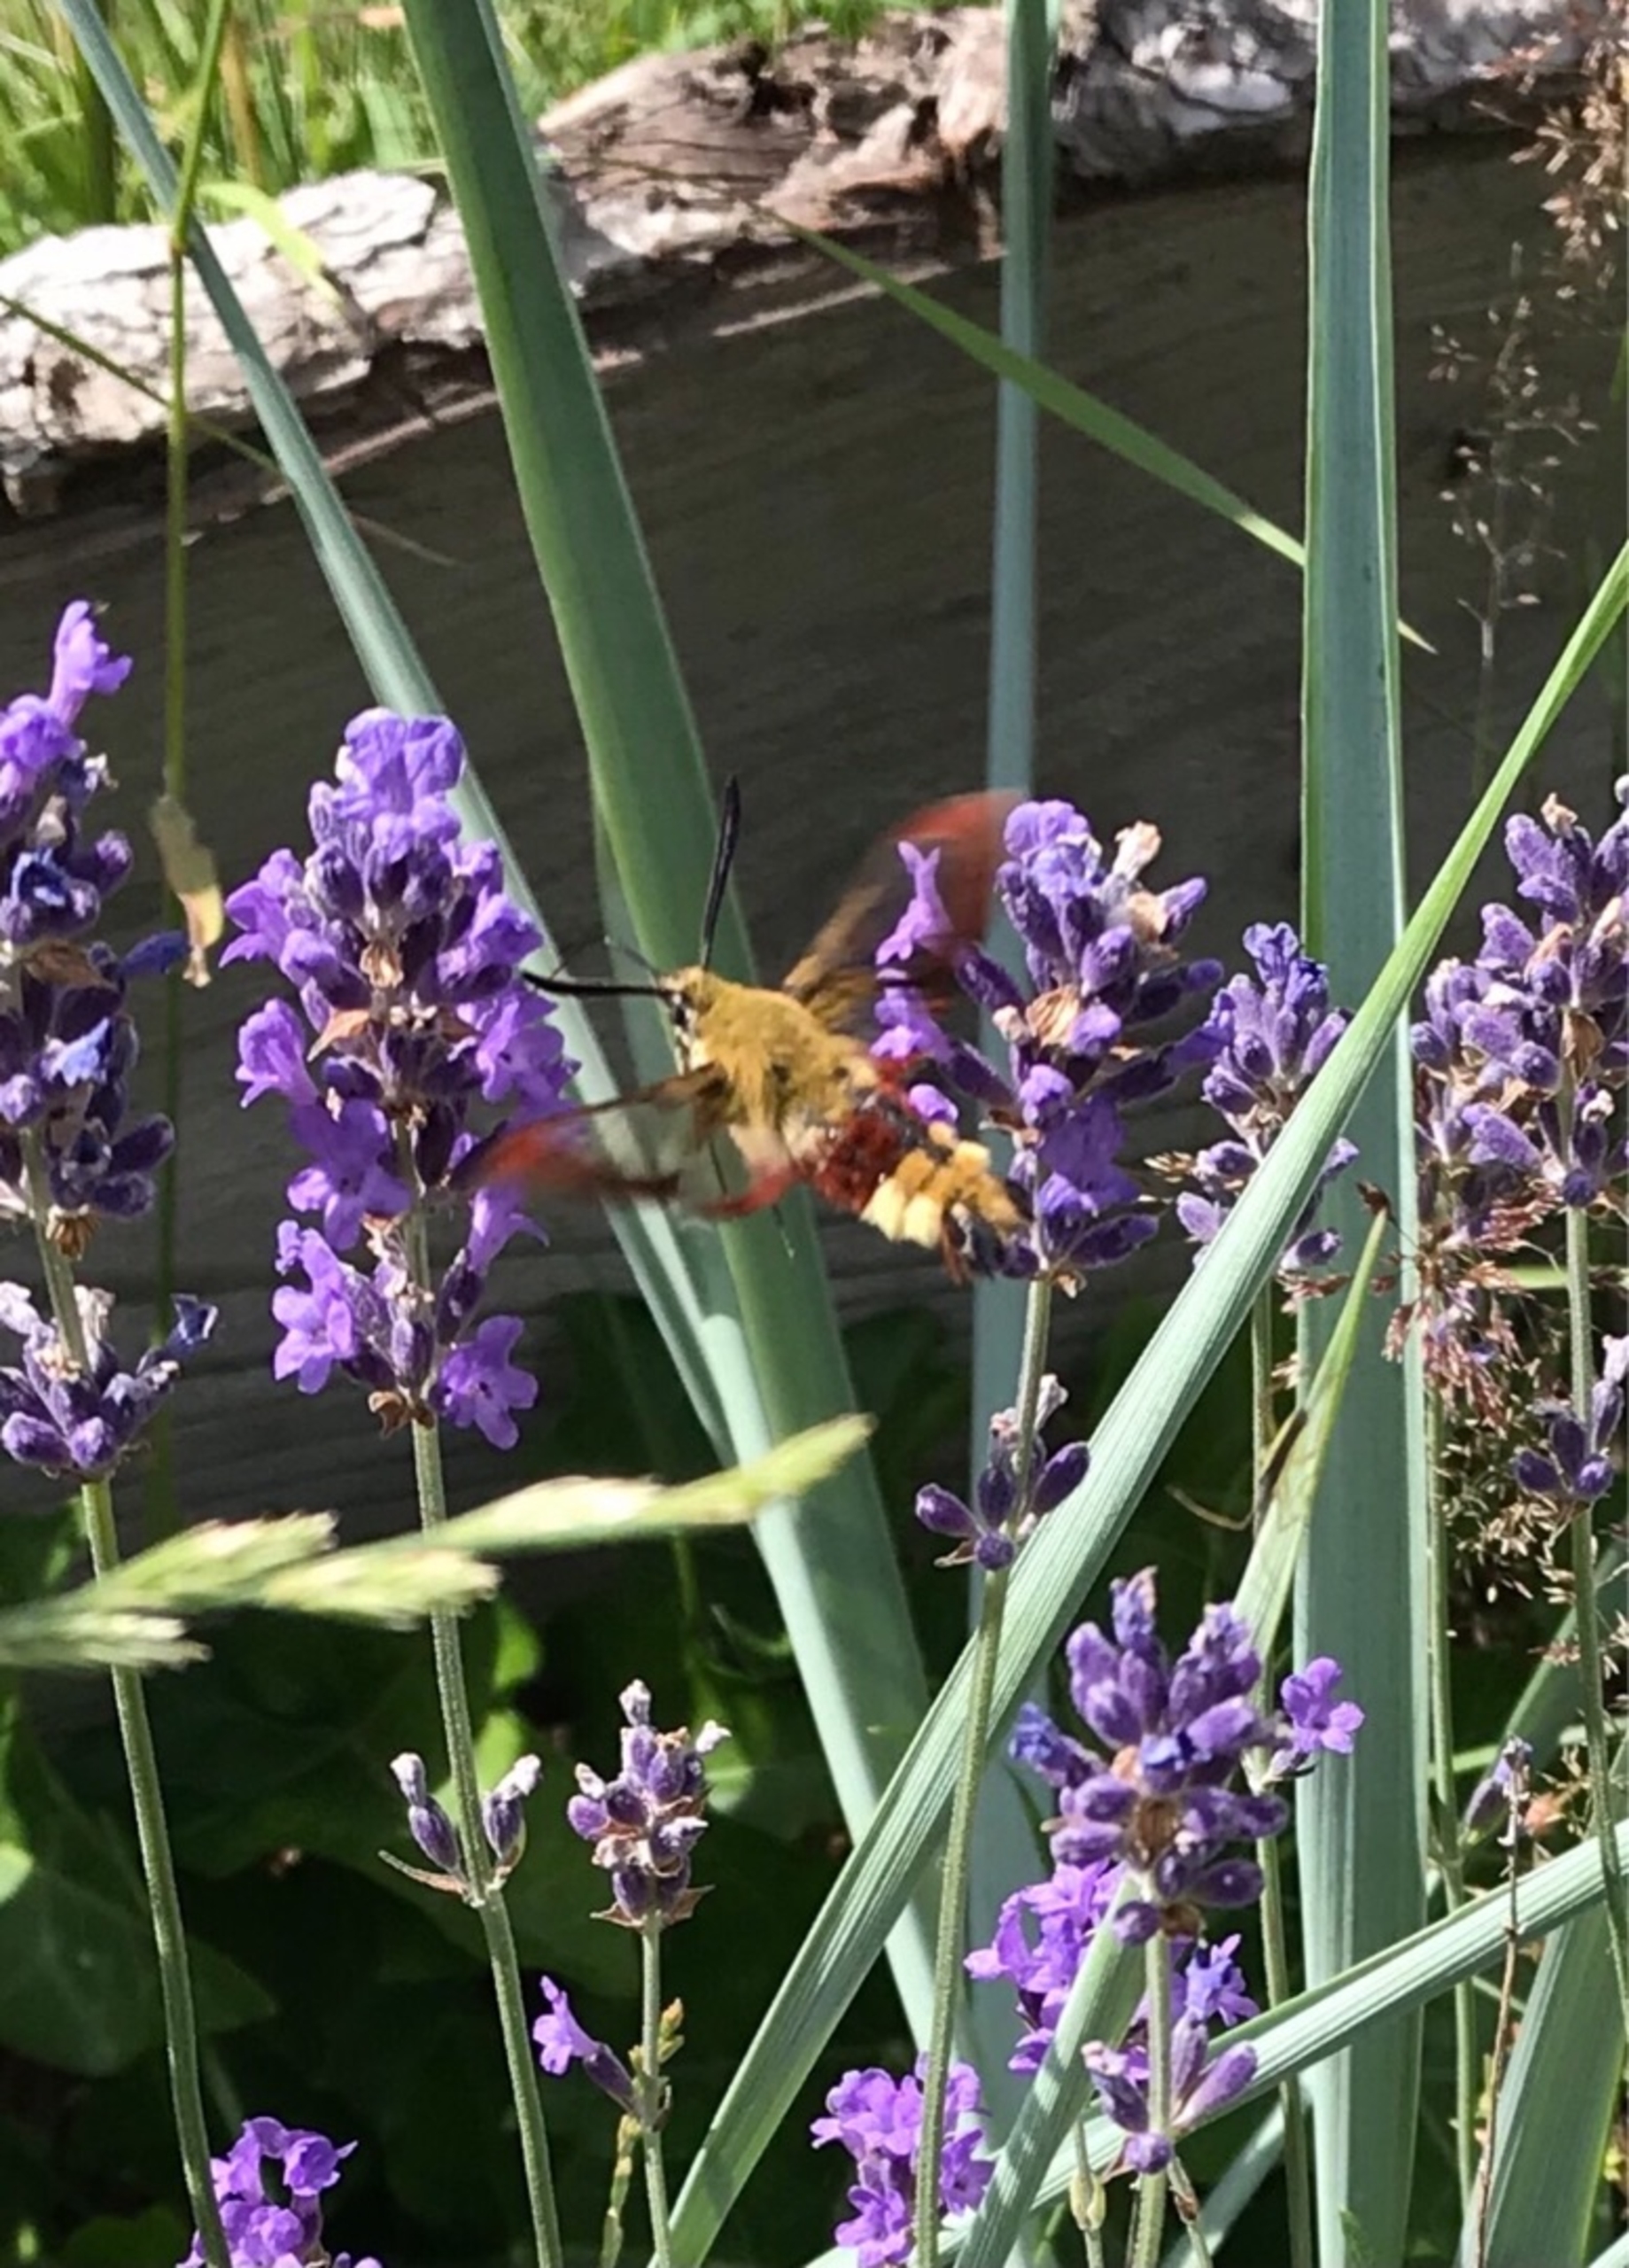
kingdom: Animalia
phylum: Arthropoda
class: Insecta
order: Lepidoptera
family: Sphingidae
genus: Hemaris
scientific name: Hemaris fuciformis
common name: Bredrandet humlebisværmer
